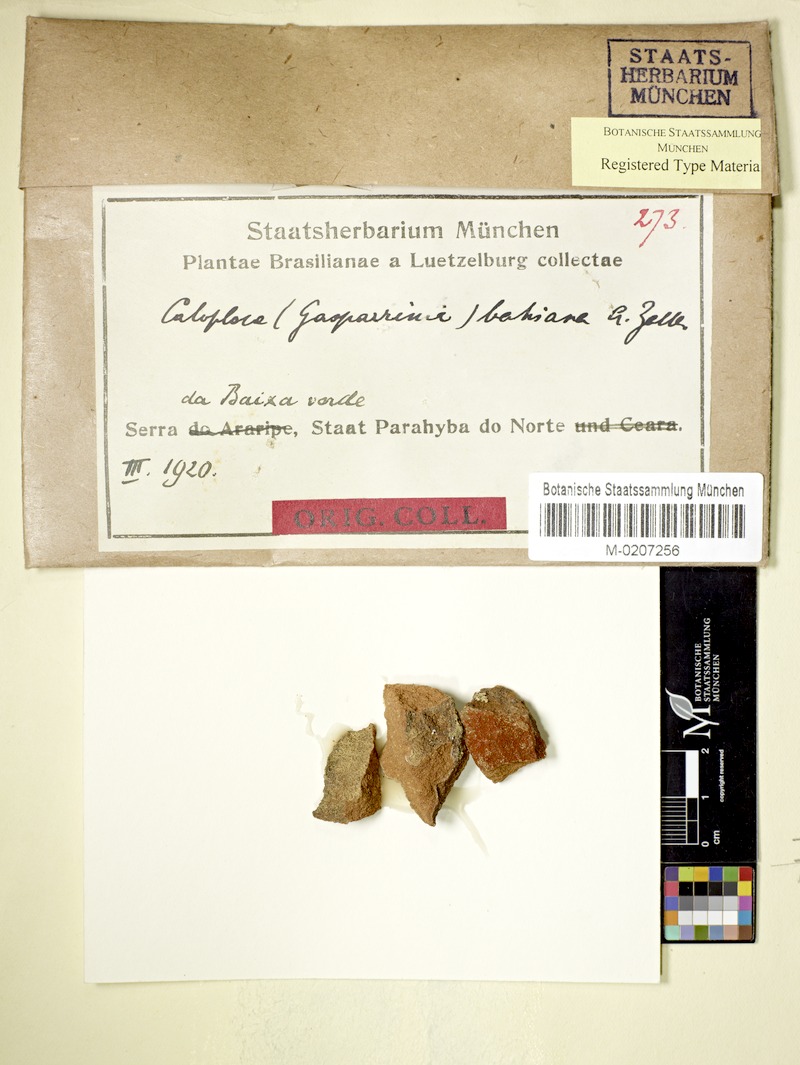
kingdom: Fungi
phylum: Ascomycota
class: Lecanoromycetes
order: Teloschistales
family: Teloschistaceae
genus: Caloplaca
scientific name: Caloplaca
